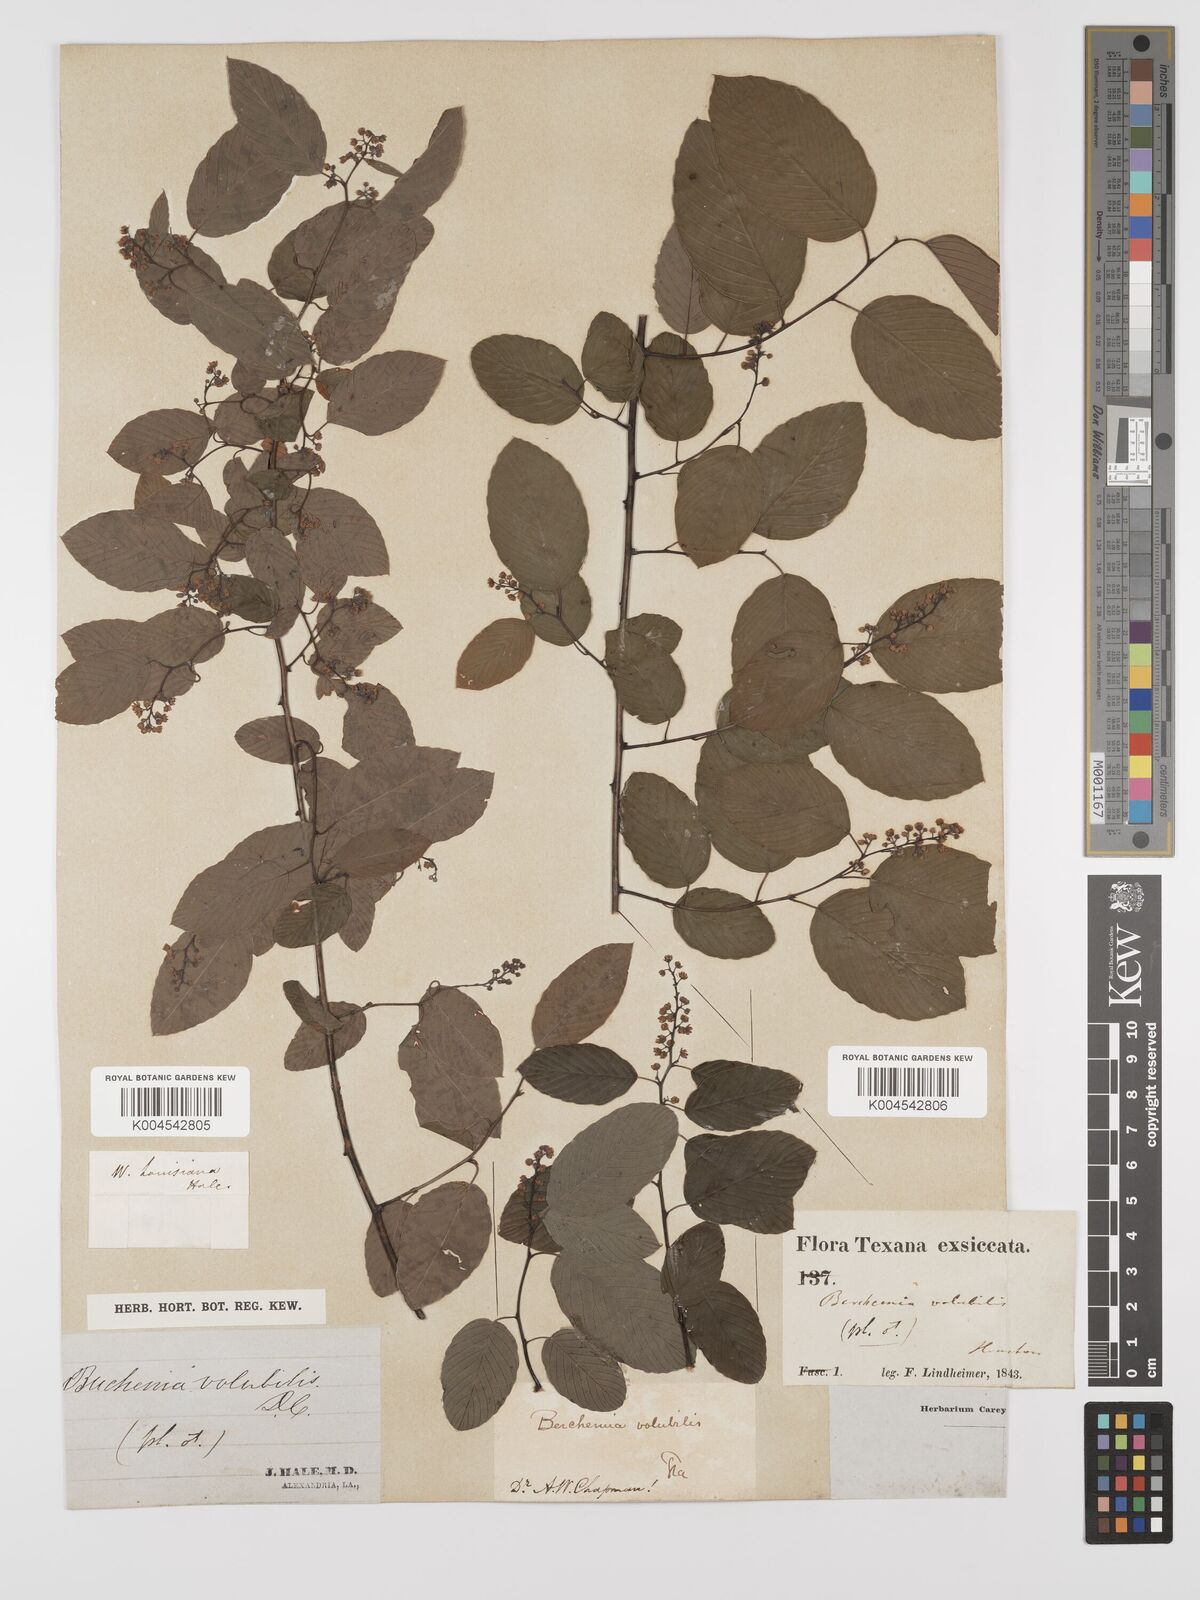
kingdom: Plantae
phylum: Tracheophyta
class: Magnoliopsida
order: Rosales
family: Rhamnaceae
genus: Berchemia
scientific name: Berchemia scandens
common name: Supplejack
